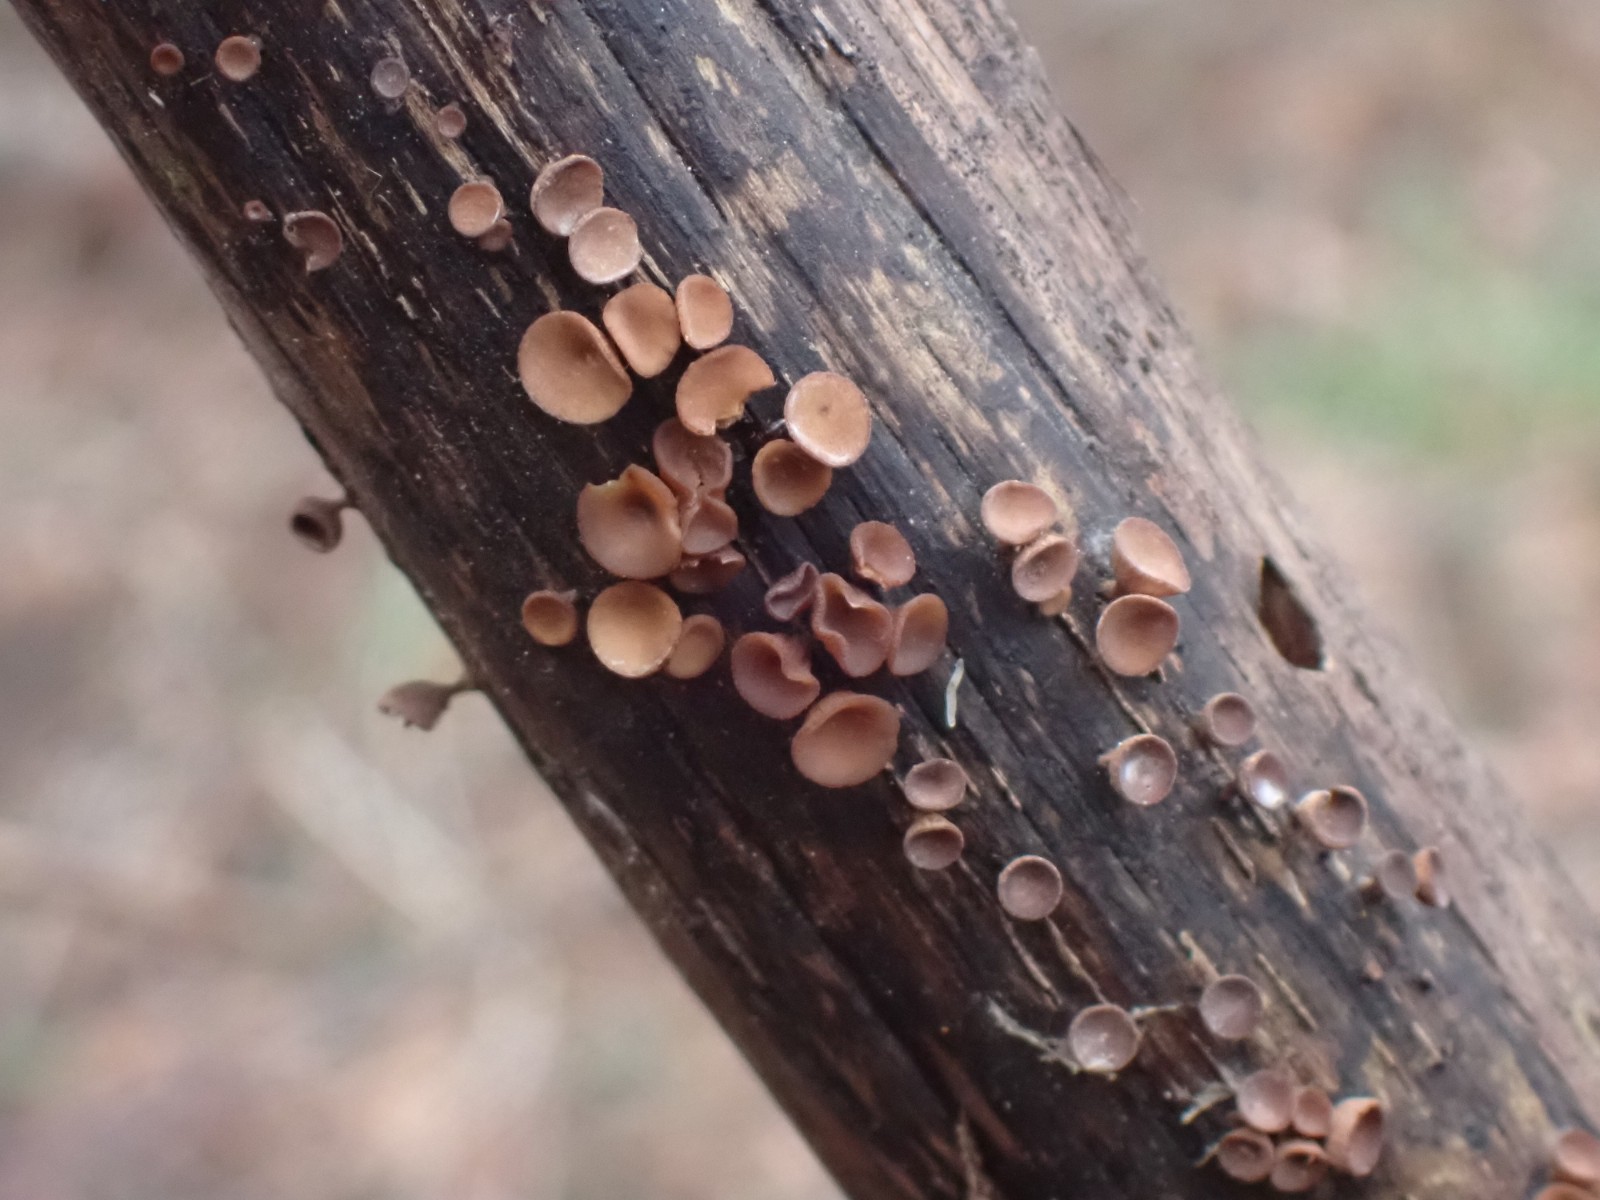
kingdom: Fungi
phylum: Ascomycota
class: Leotiomycetes
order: Helotiales
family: Rutstroemiaceae
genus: Rutstroemia
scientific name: Rutstroemia firma
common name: gren-brunskive
